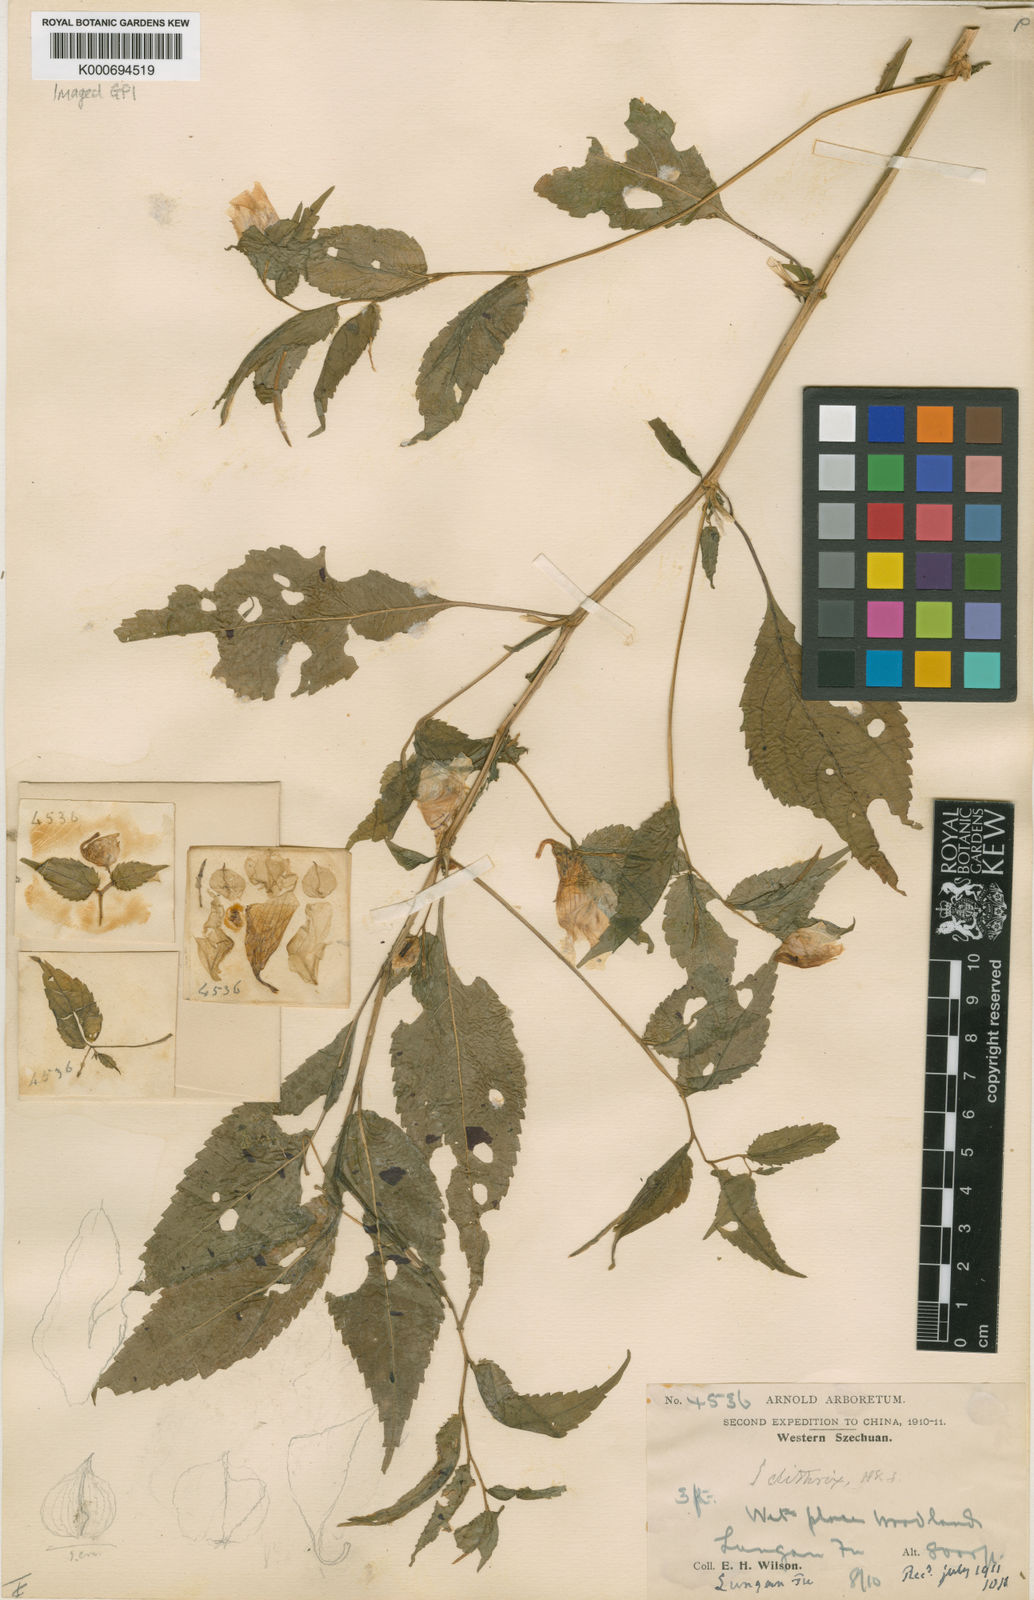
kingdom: Plantae
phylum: Tracheophyta
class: Magnoliopsida
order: Ericales
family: Balsaminaceae
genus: Impatiens
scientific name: Impatiens
